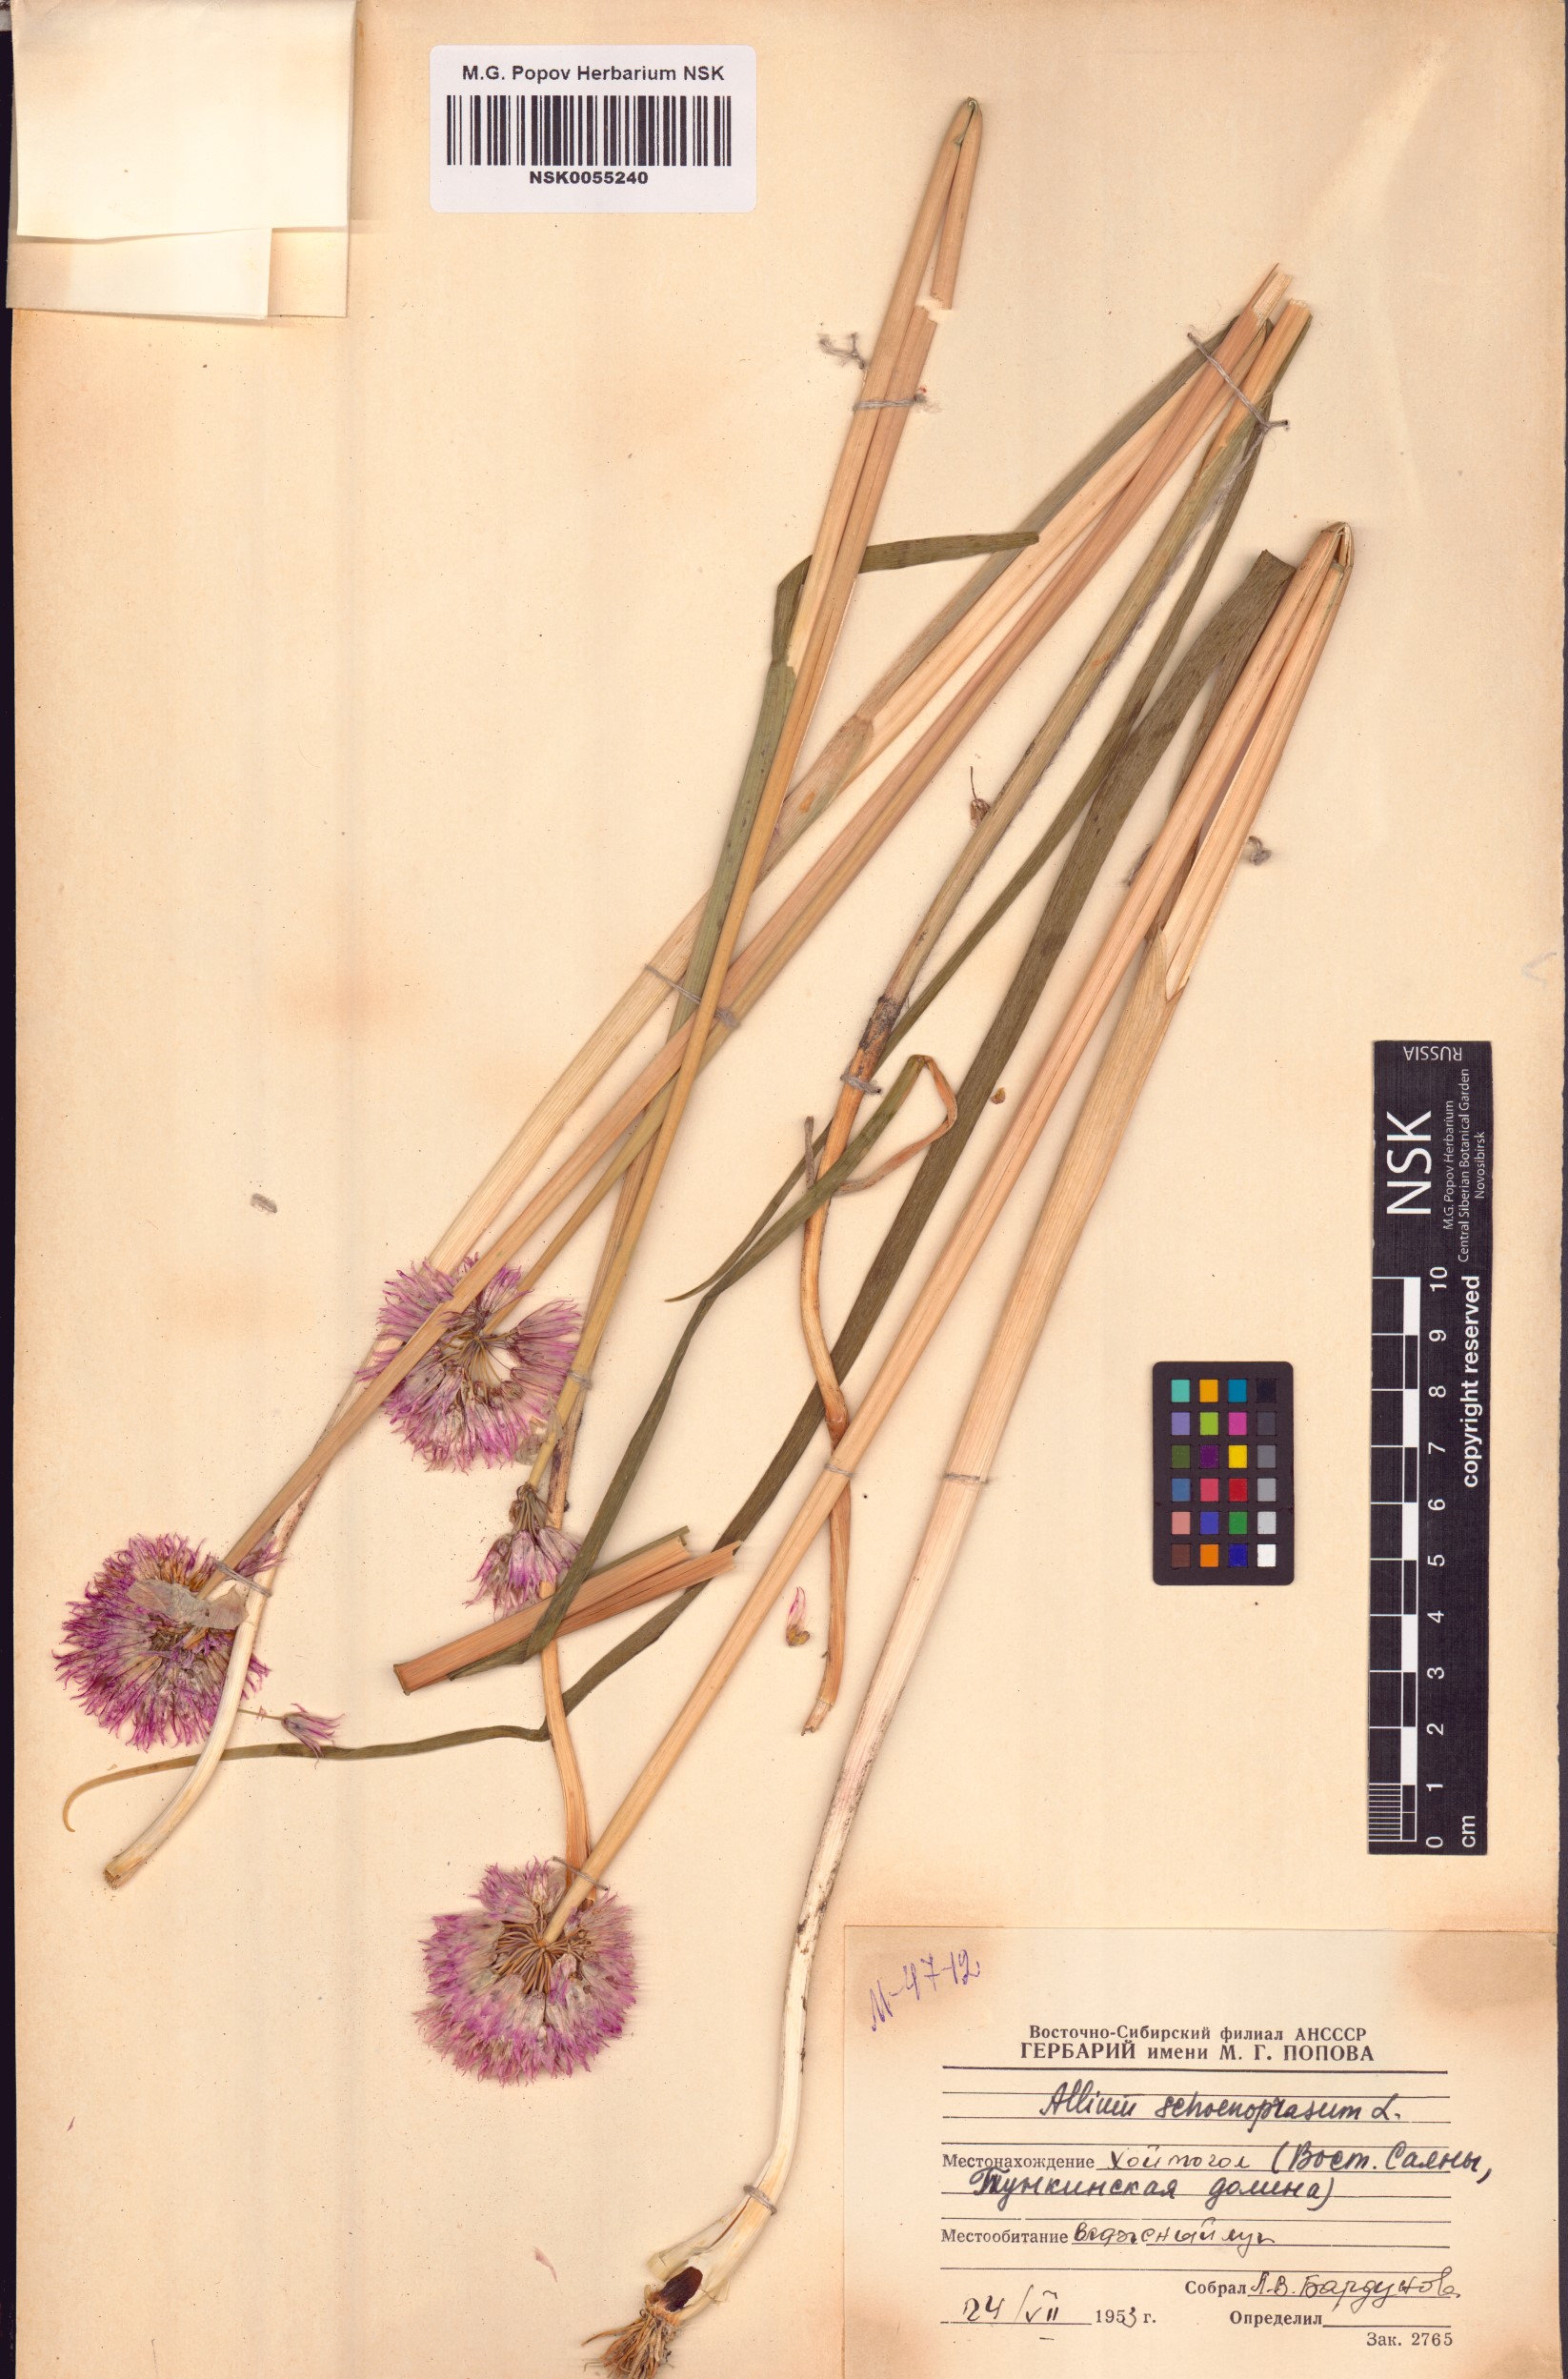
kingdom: Plantae
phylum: Tracheophyta
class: Liliopsida
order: Asparagales
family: Amaryllidaceae
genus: Allium
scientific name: Allium schoenoprasum
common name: Chives
